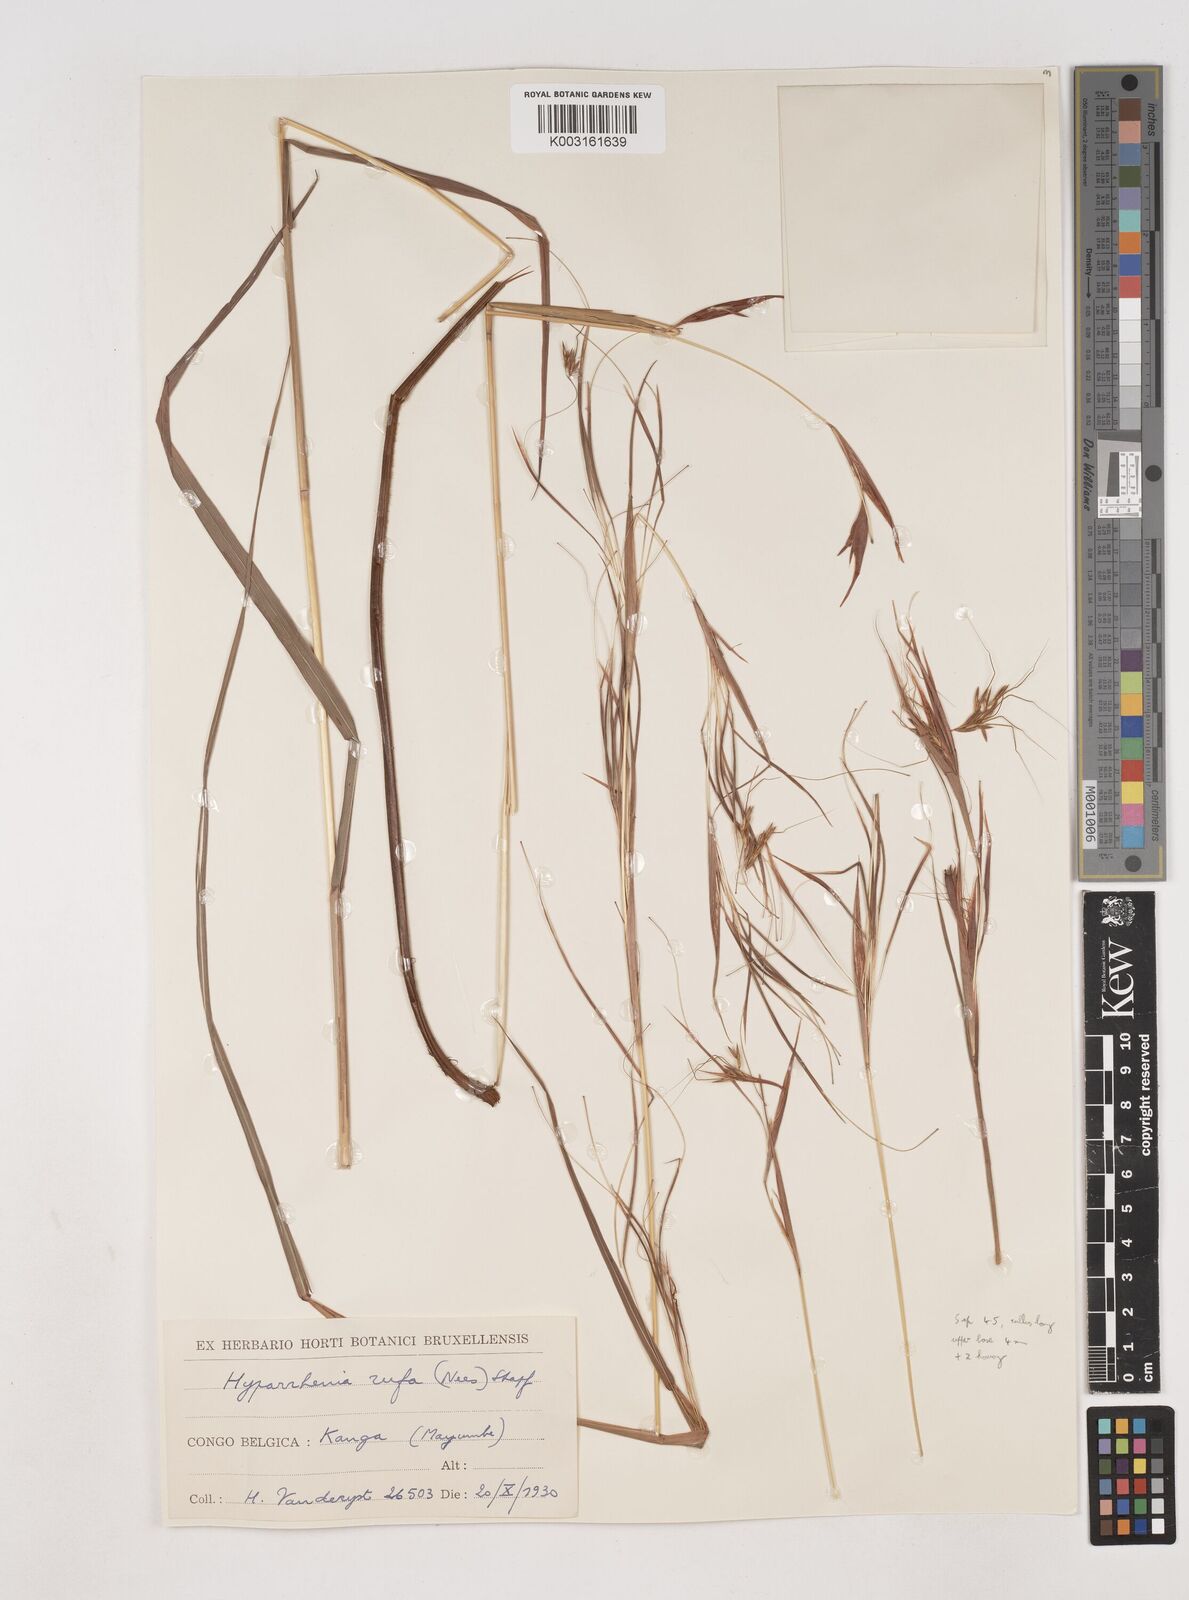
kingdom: Plantae
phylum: Tracheophyta
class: Liliopsida
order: Poales
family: Poaceae
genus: Hyparrhenia
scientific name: Hyparrhenia rufa
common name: Jaraguagrass
